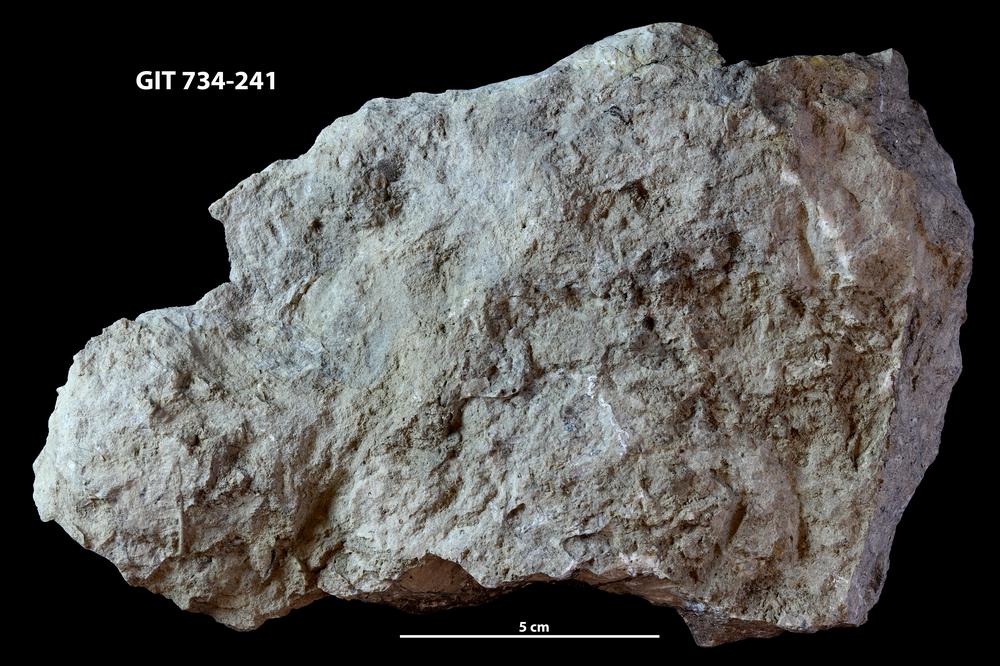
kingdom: Animalia
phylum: Cnidaria
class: Anthozoa
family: Cateniporidae
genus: Catenipora
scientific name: Catenipora
